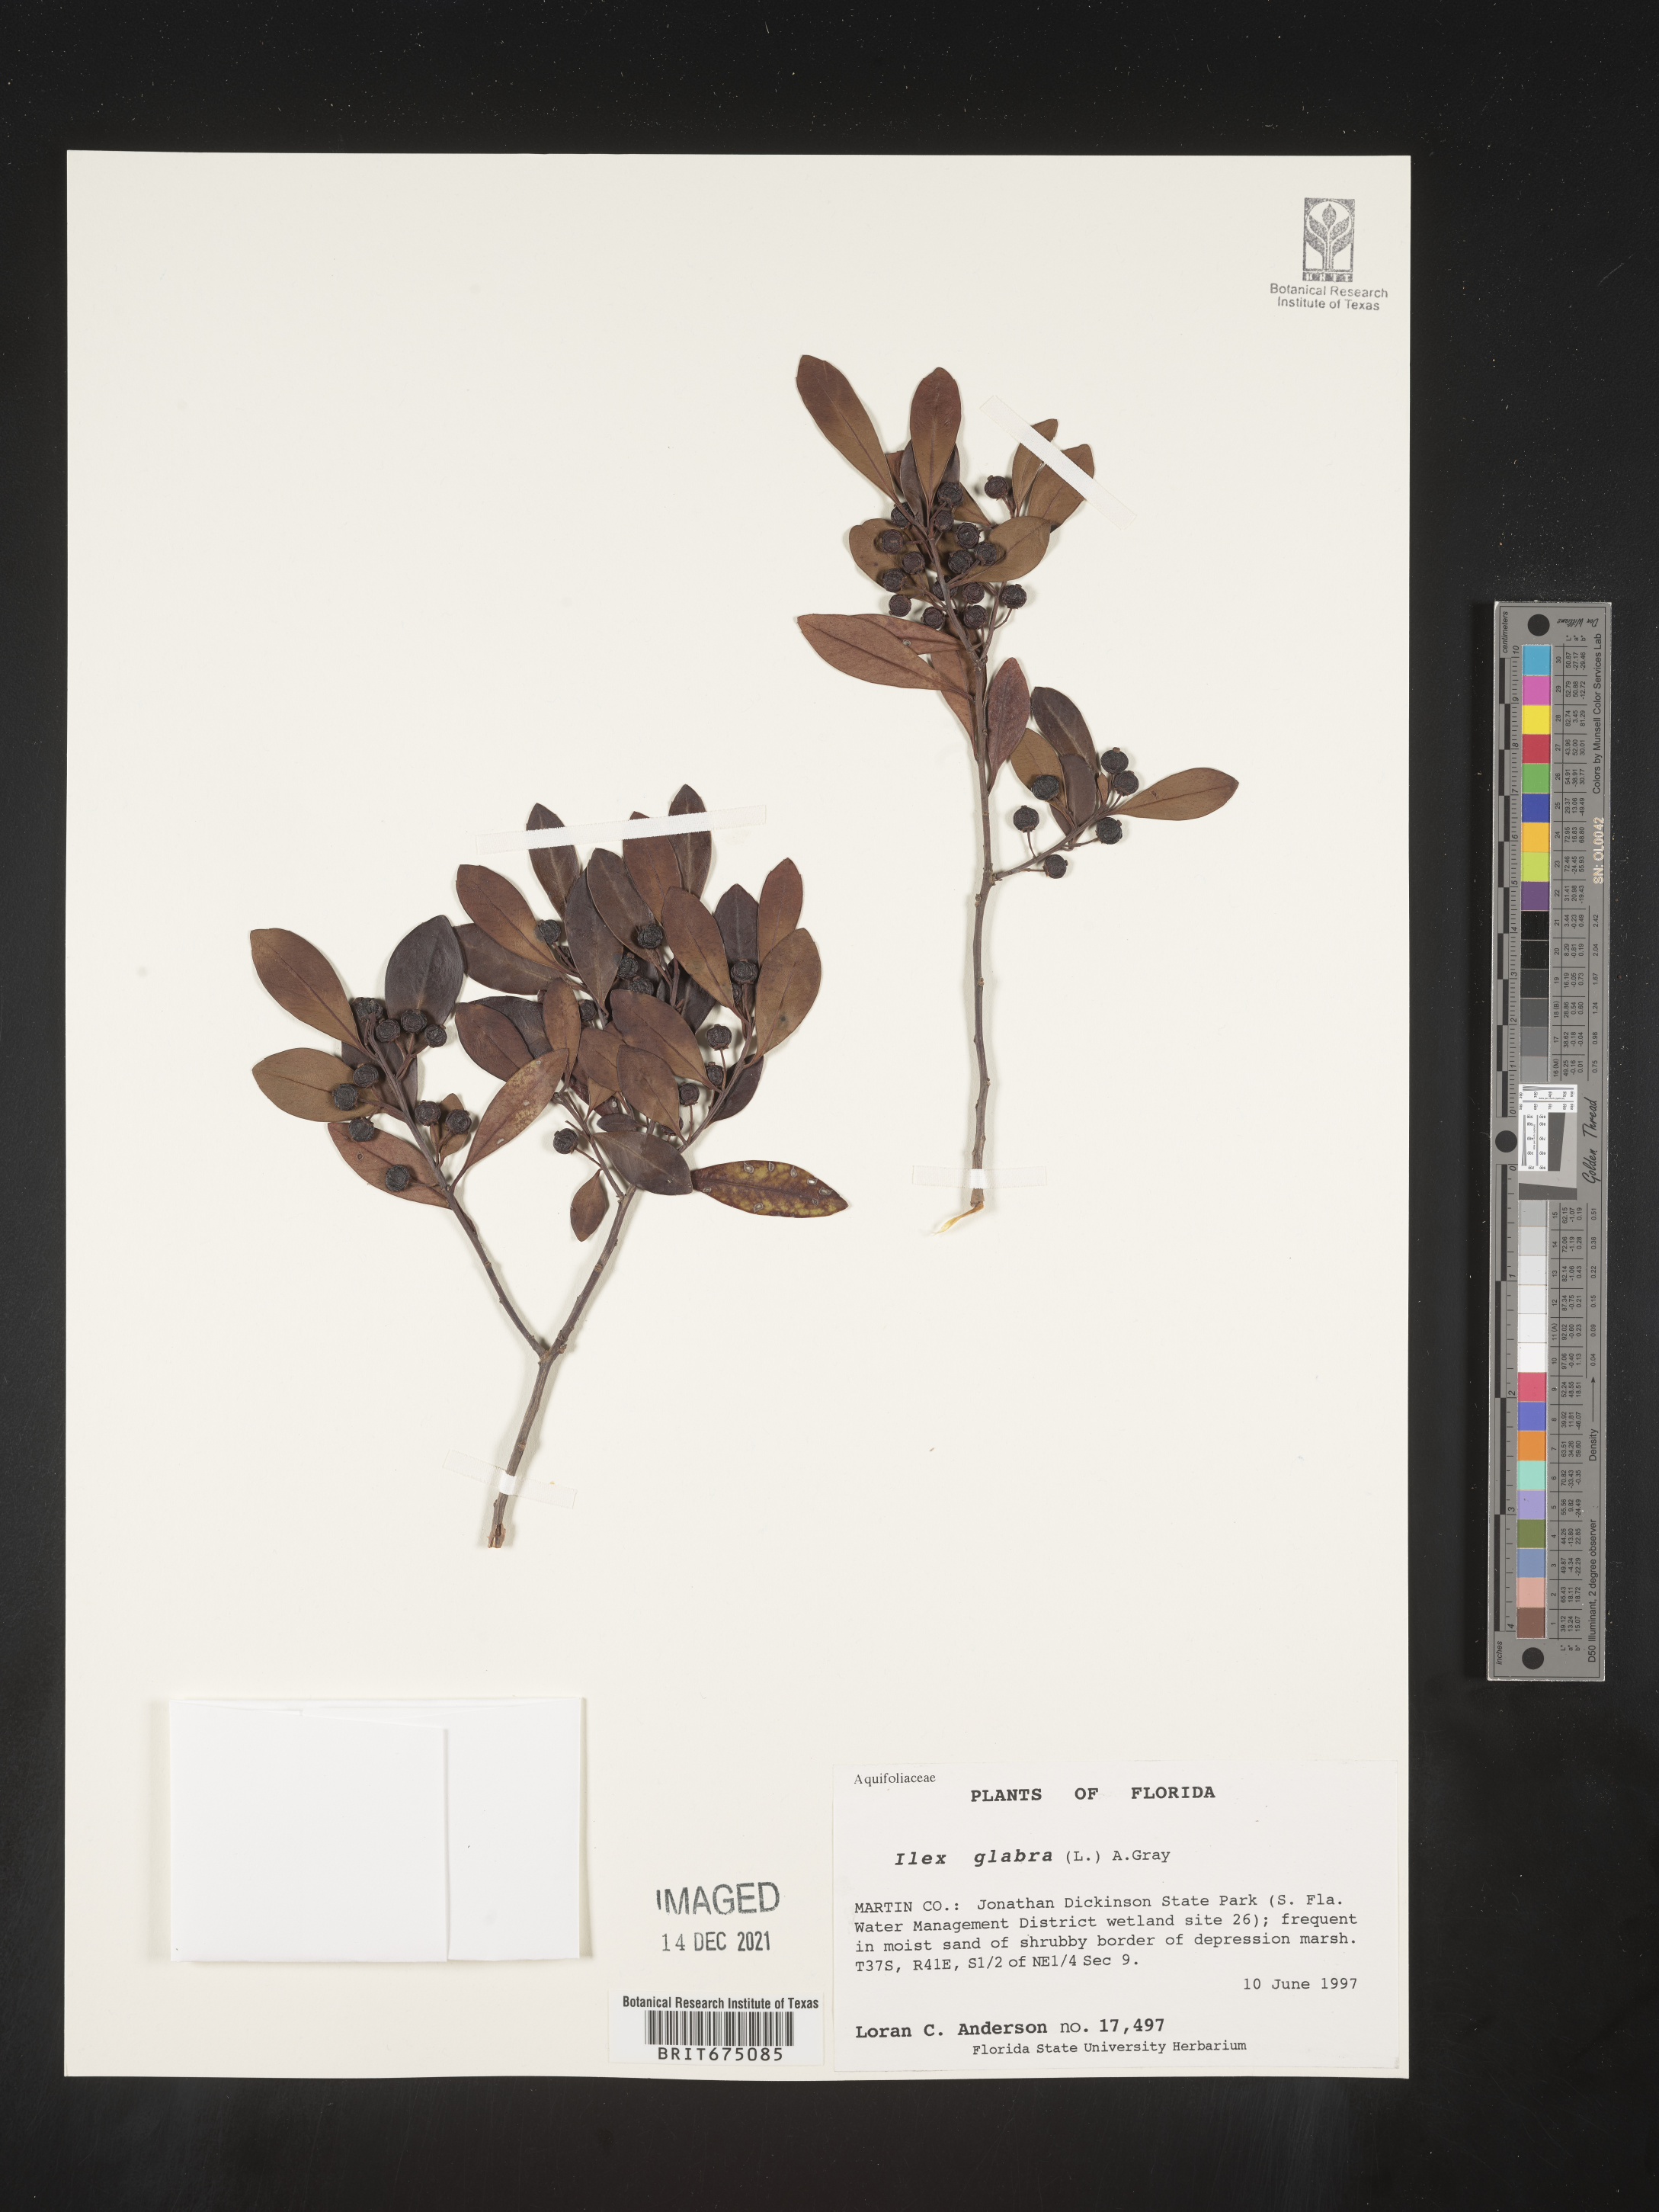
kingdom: Plantae
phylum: Tracheophyta
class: Magnoliopsida
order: Aquifoliales
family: Aquifoliaceae
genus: Ilex
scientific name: Ilex glabra
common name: Bitter gallberry
